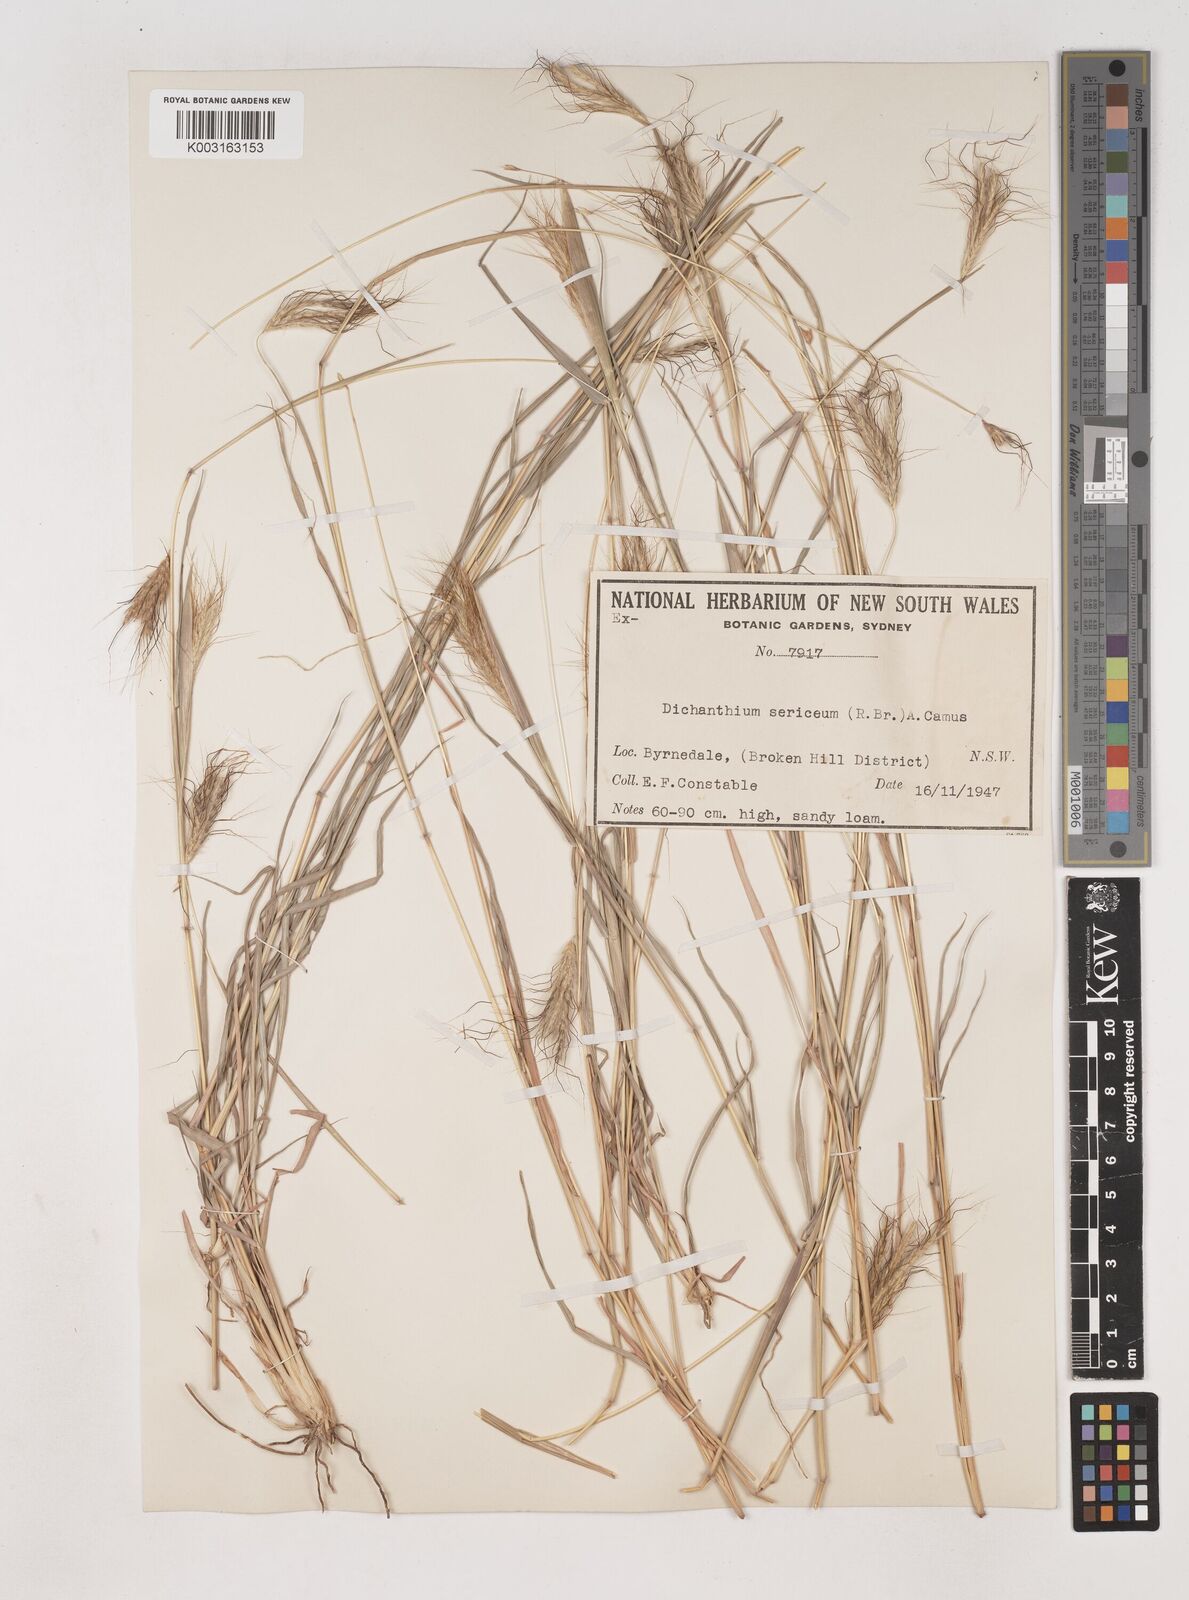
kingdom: Plantae
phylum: Tracheophyta
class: Liliopsida
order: Poales
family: Poaceae
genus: Dichanthium
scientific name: Dichanthium sericeum
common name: Silky bluestem
